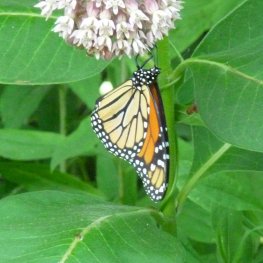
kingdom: Animalia
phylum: Arthropoda
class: Insecta
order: Lepidoptera
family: Nymphalidae
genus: Danaus
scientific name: Danaus plexippus
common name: Monarch
